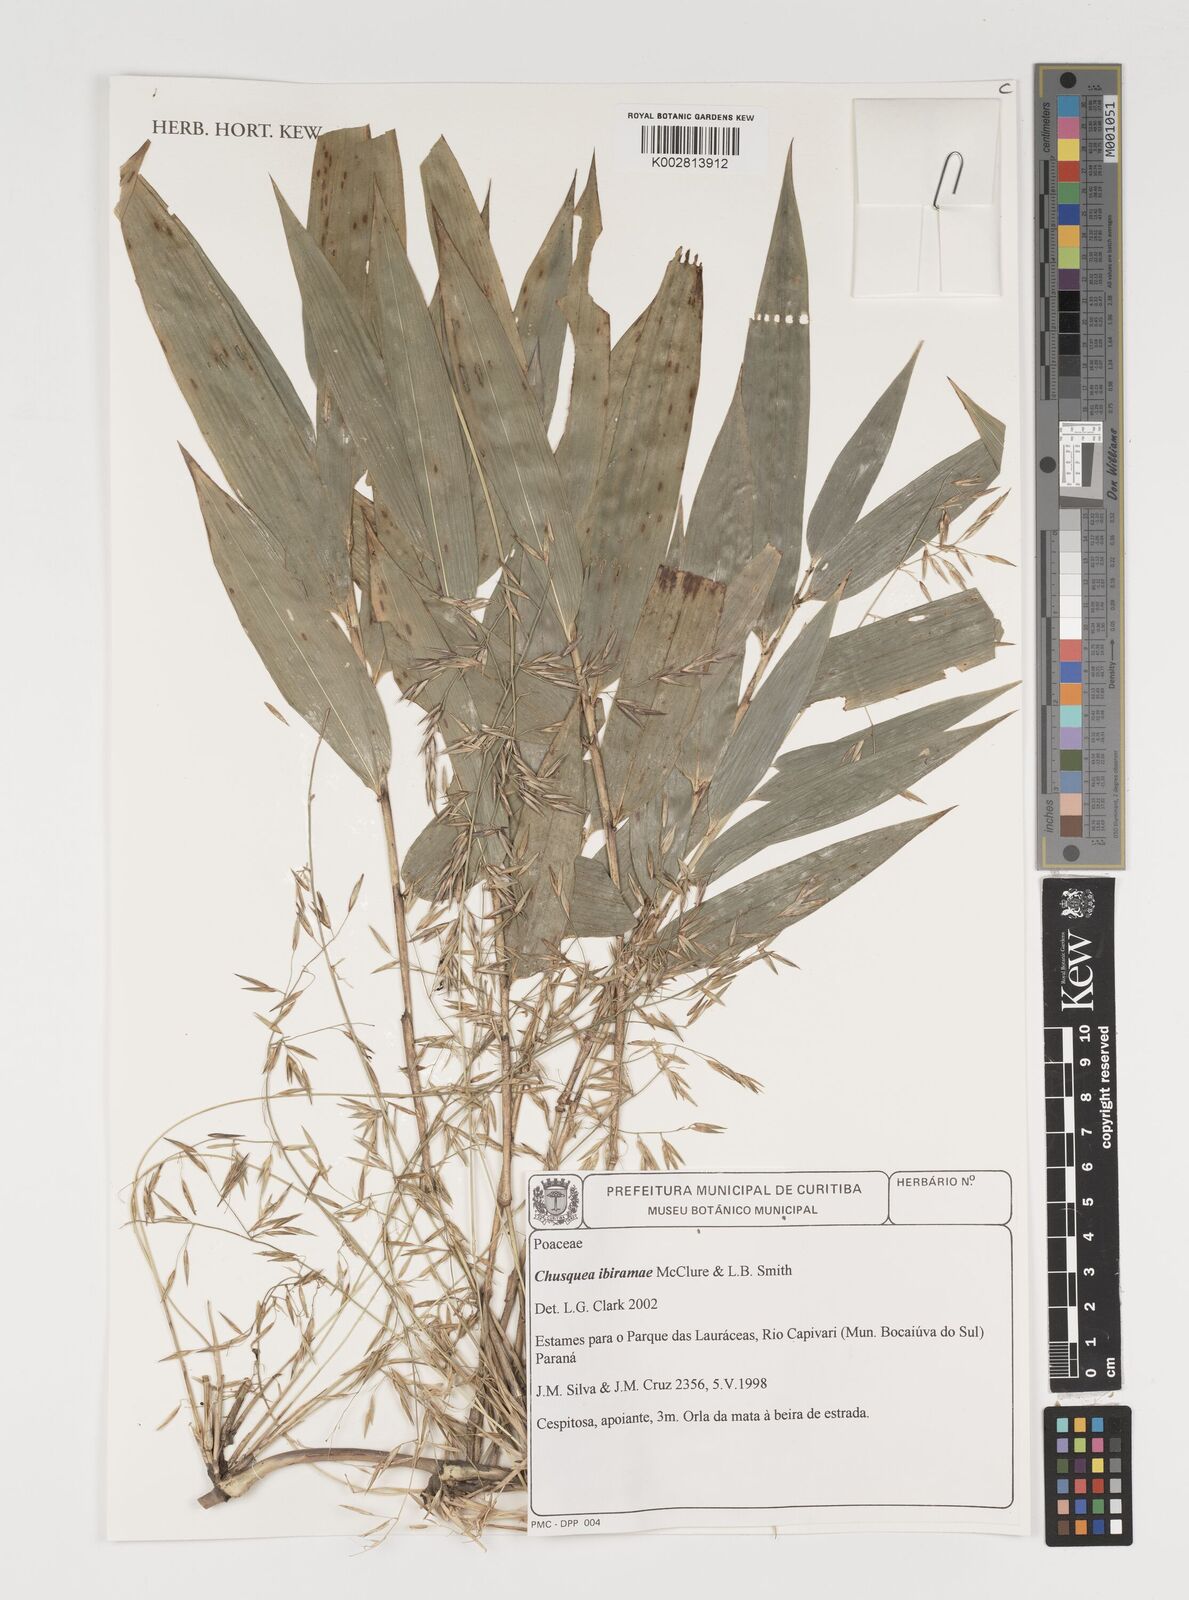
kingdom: Plantae
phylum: Tracheophyta
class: Liliopsida
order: Poales
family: Poaceae
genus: Chusquea
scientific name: Chusquea ibiramae
